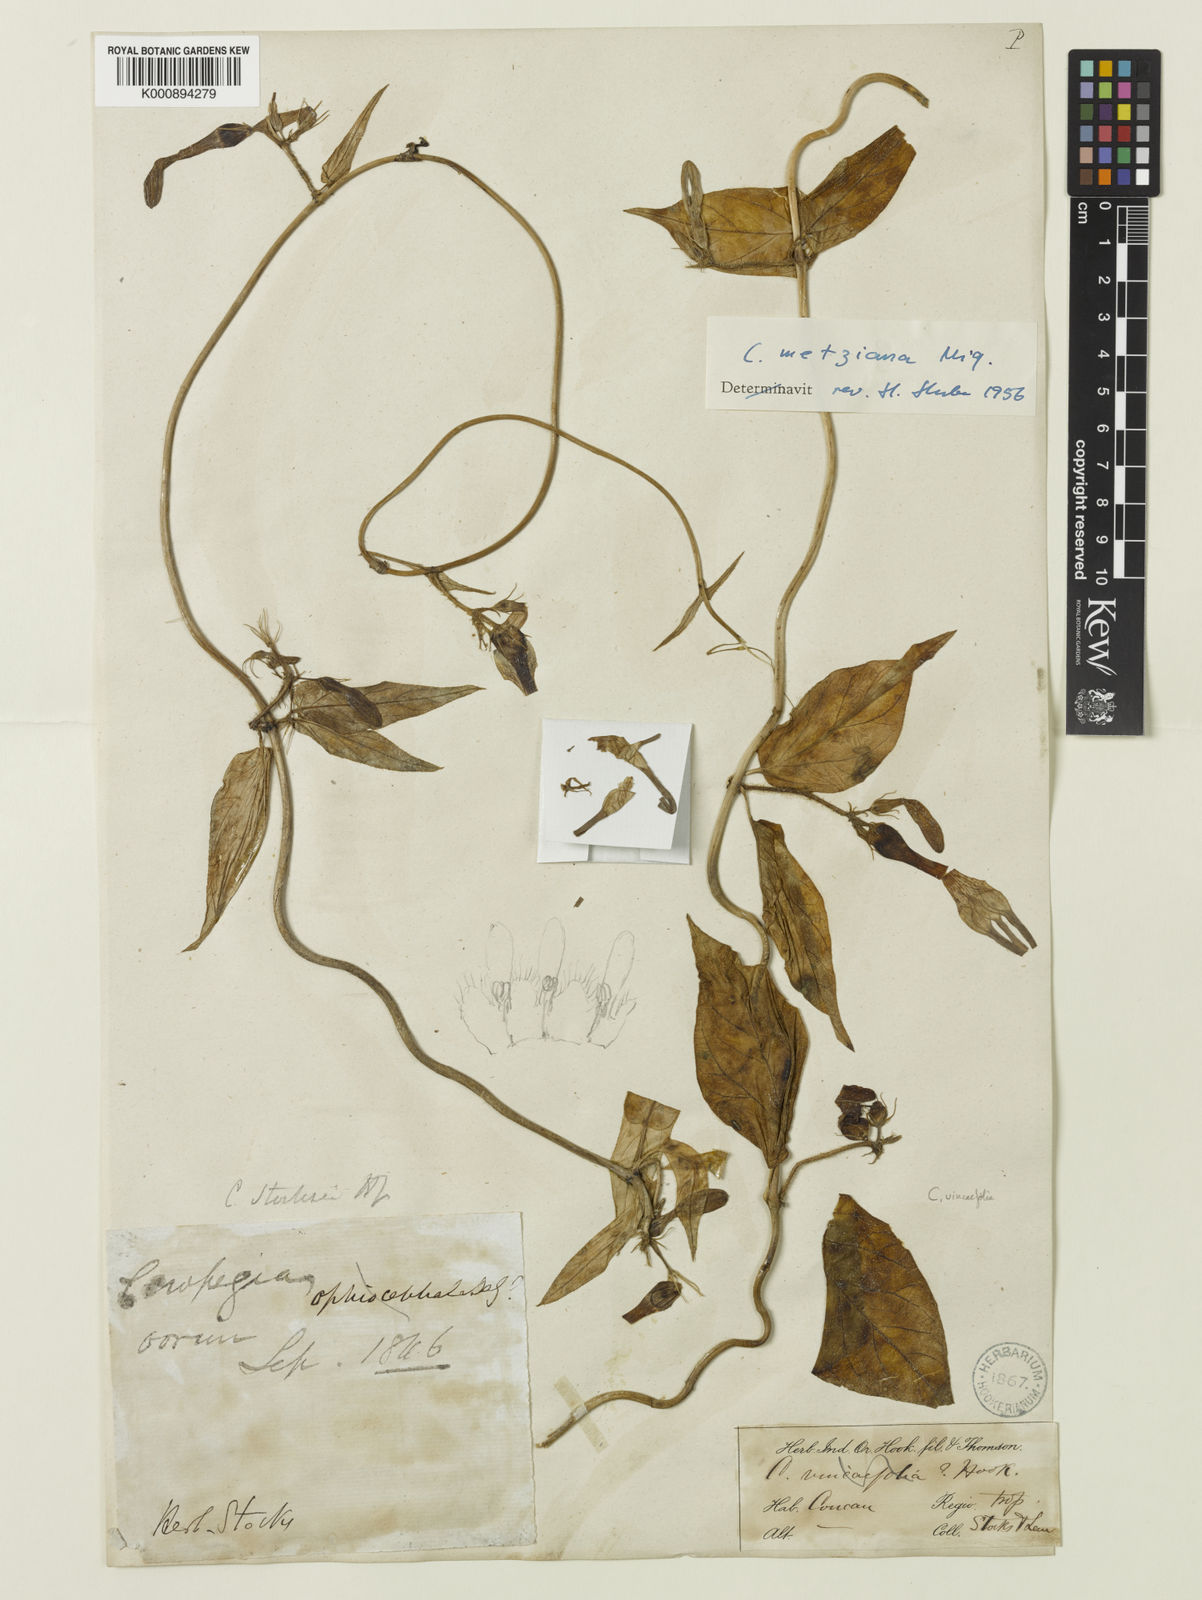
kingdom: Plantae
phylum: Tracheophyta
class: Magnoliopsida
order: Gentianales
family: Apocynaceae
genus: Ceropegia
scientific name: Ceropegia vincifolia
